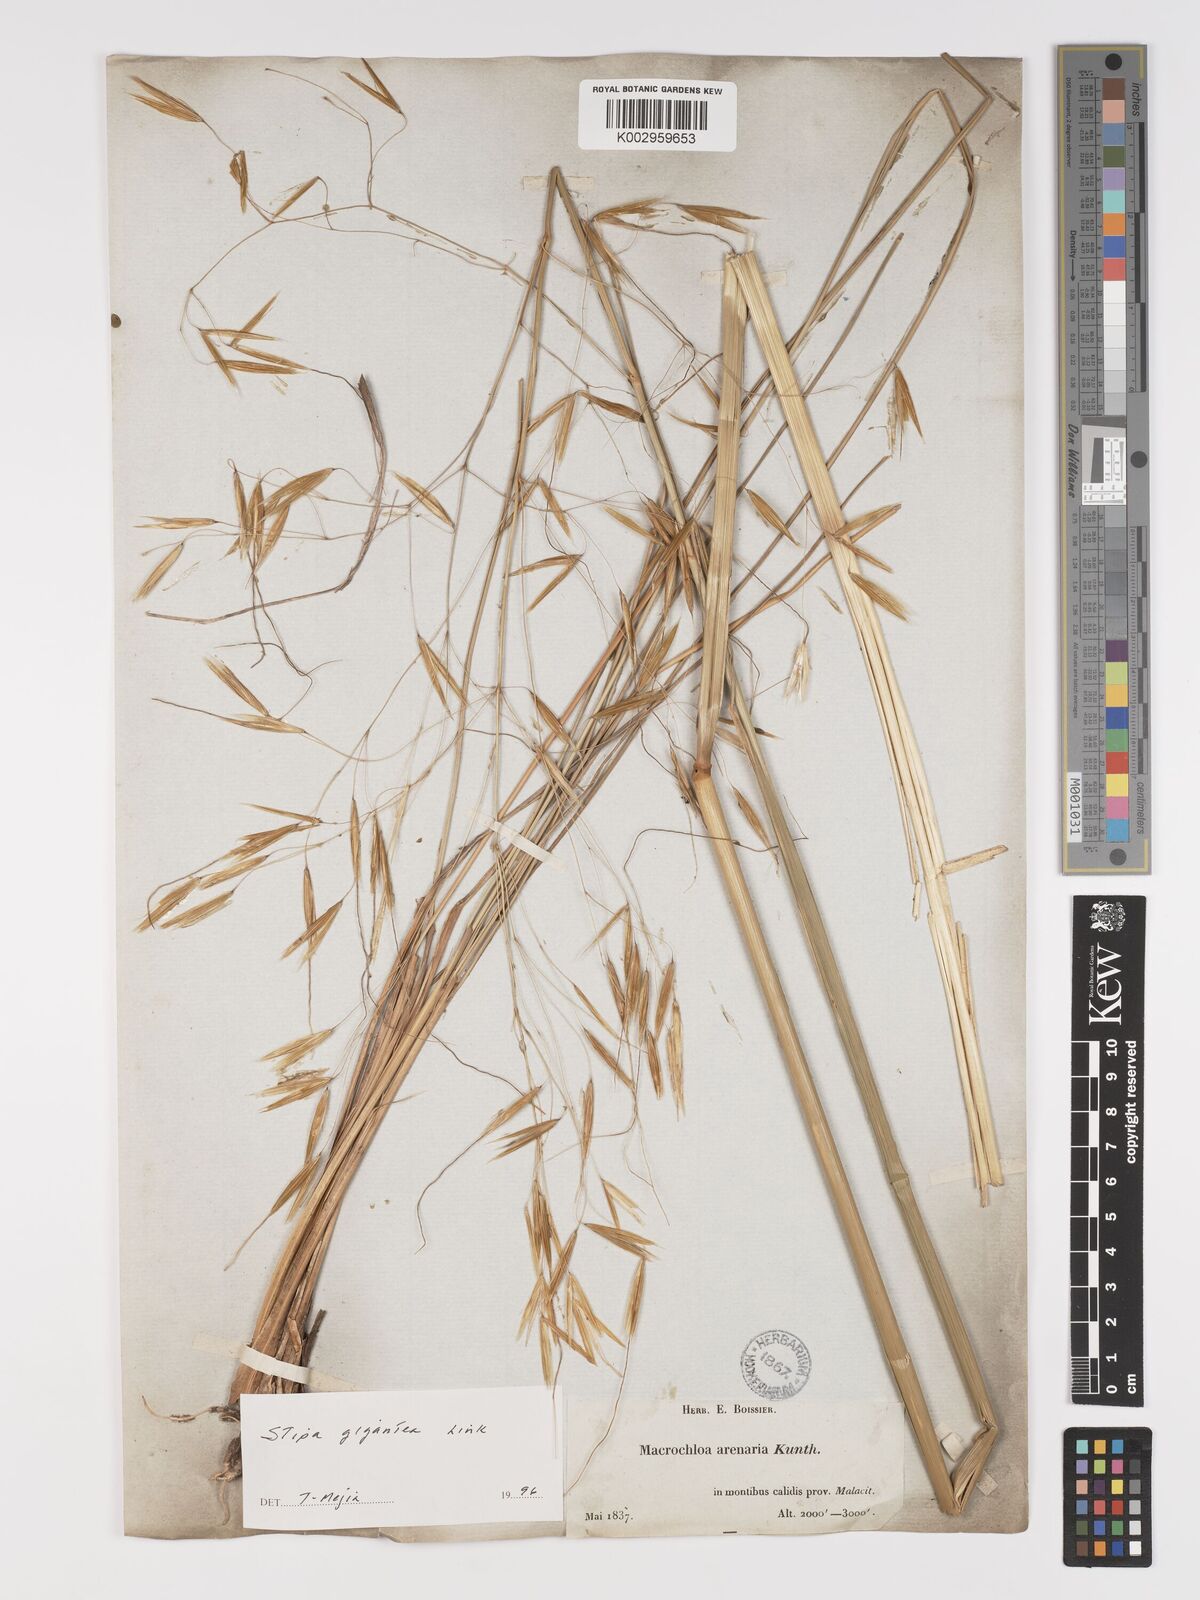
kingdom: Plantae
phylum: Tracheophyta
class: Liliopsida
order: Poales
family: Poaceae
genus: Celtica
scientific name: Celtica gigantea
